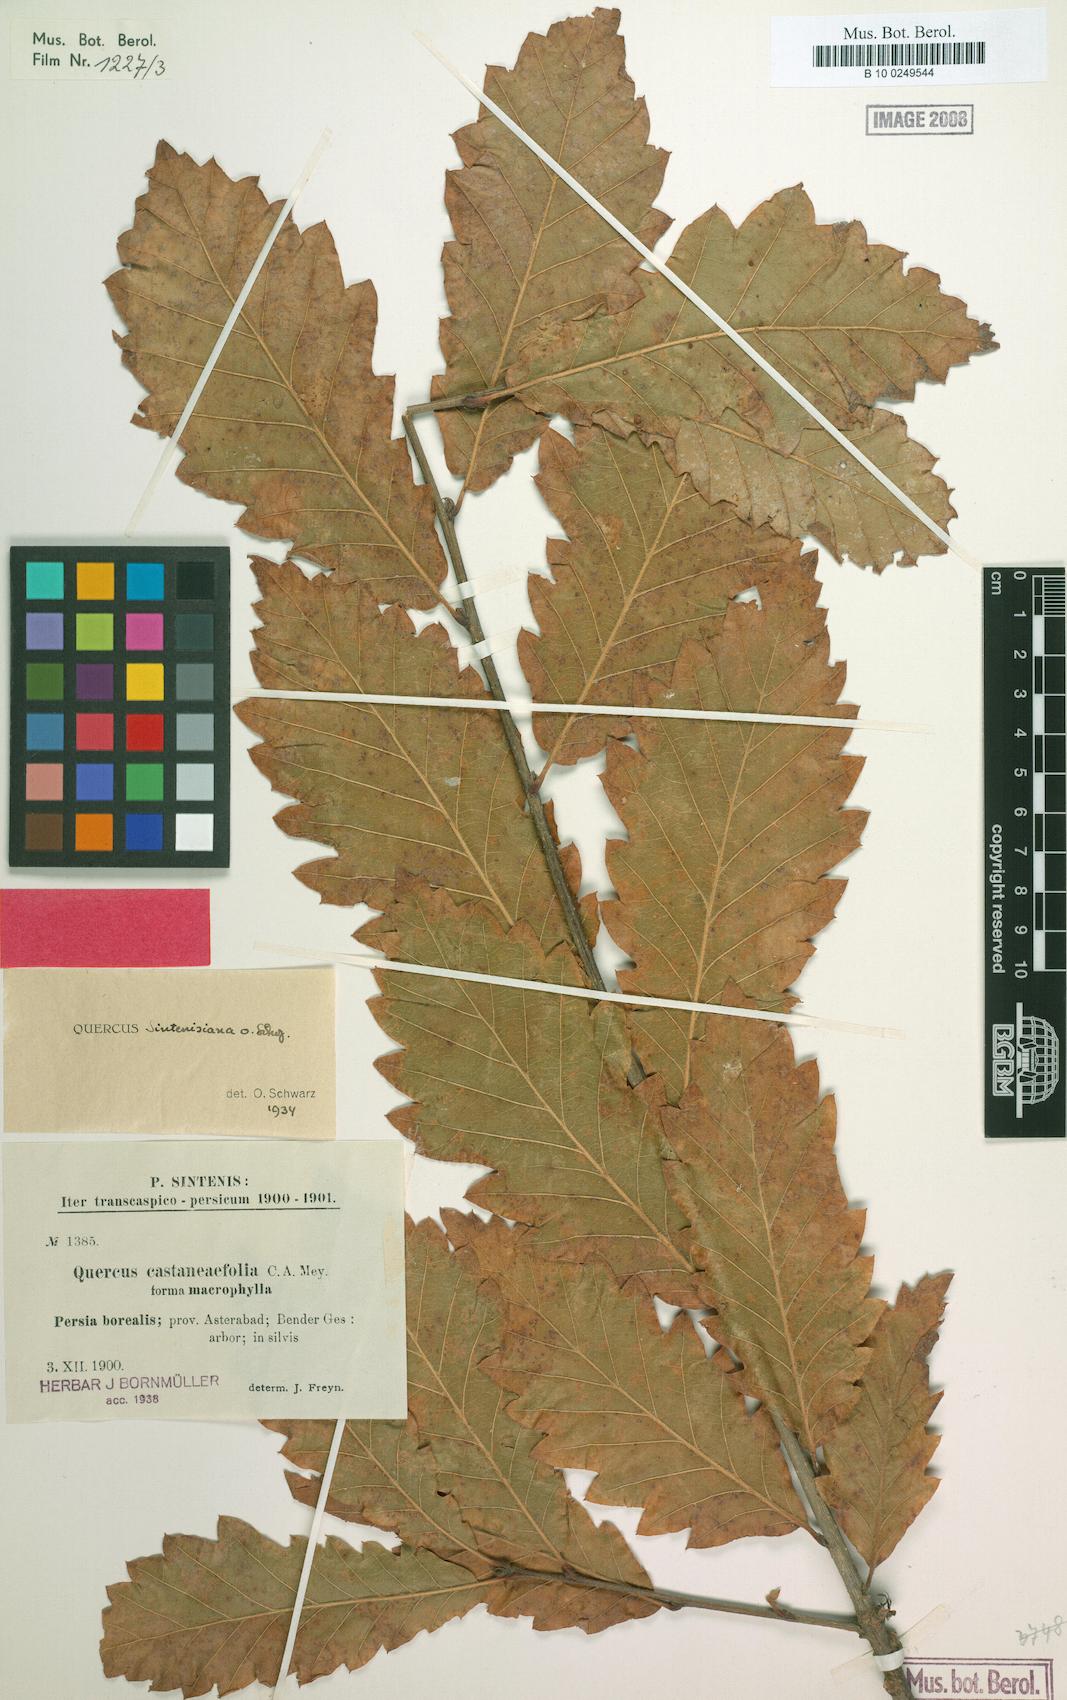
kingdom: Plantae
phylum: Tracheophyta
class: Magnoliopsida
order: Fagales
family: Fagaceae
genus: Quercus
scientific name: Quercus castaneifolia
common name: Chestnut-leaved oak
